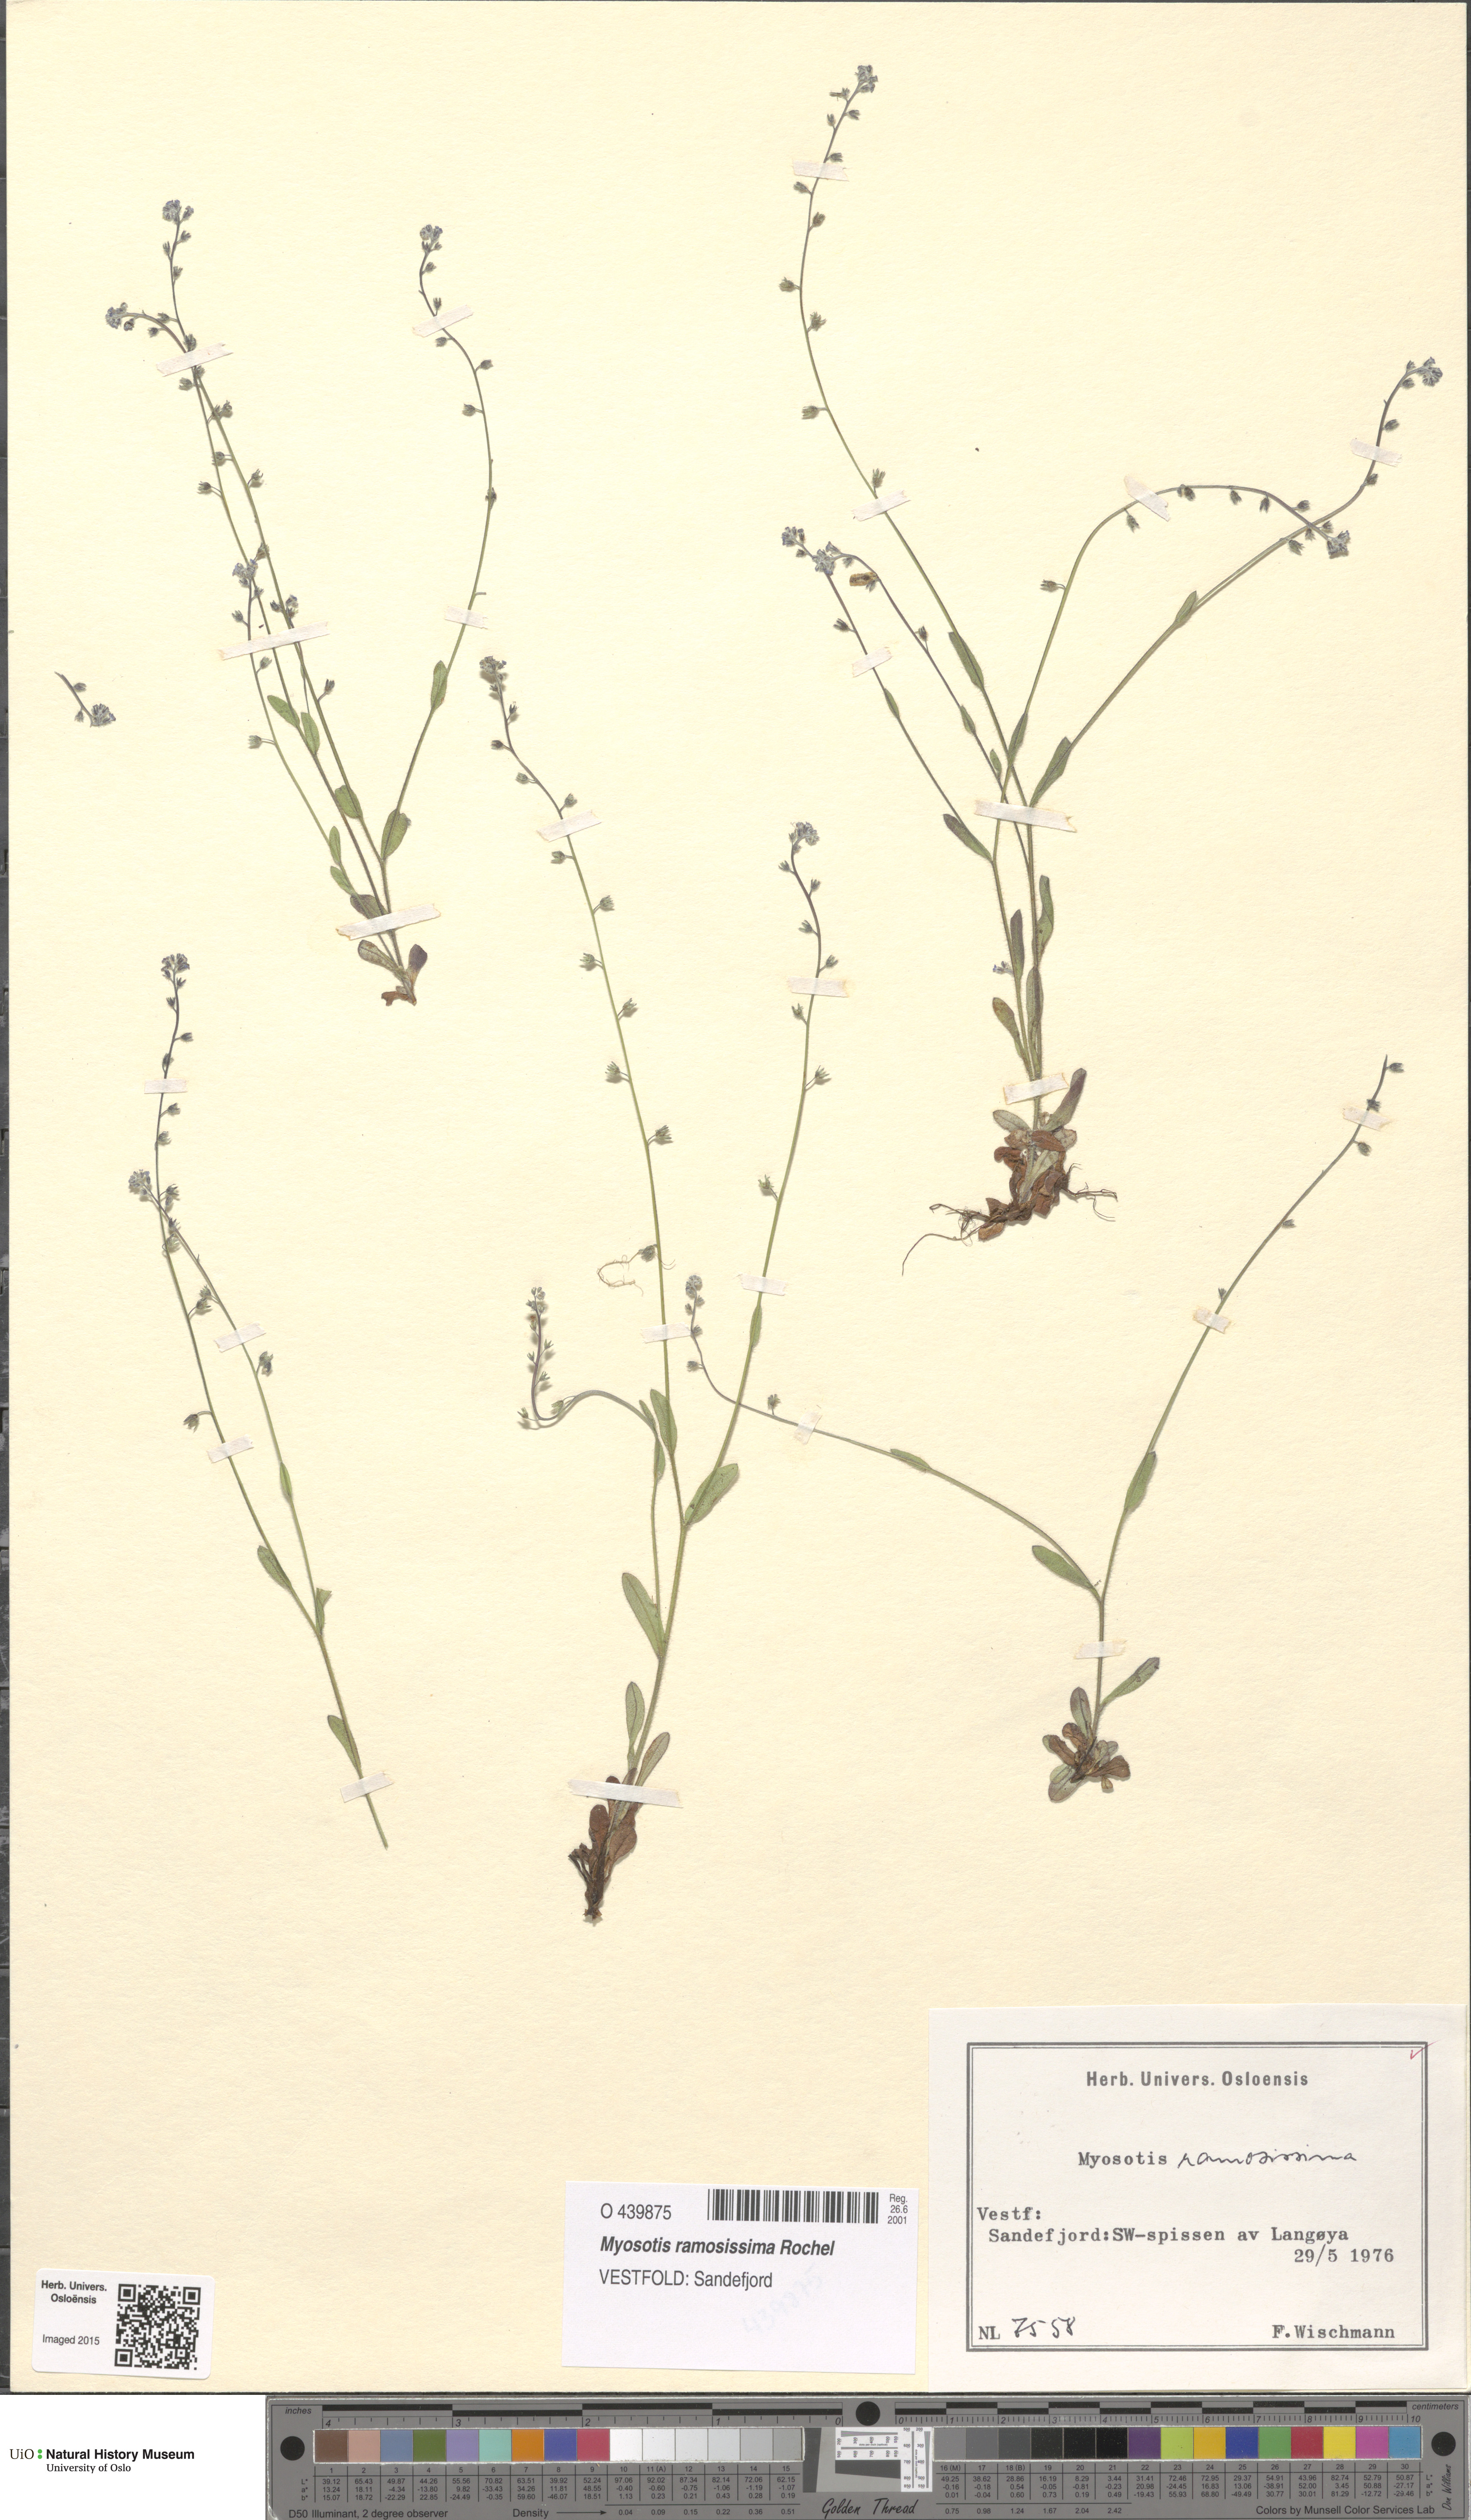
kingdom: Plantae
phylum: Tracheophyta
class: Magnoliopsida
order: Boraginales
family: Boraginaceae
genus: Myosotis
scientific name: Myosotis ramosissima
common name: Early forget-me-not
